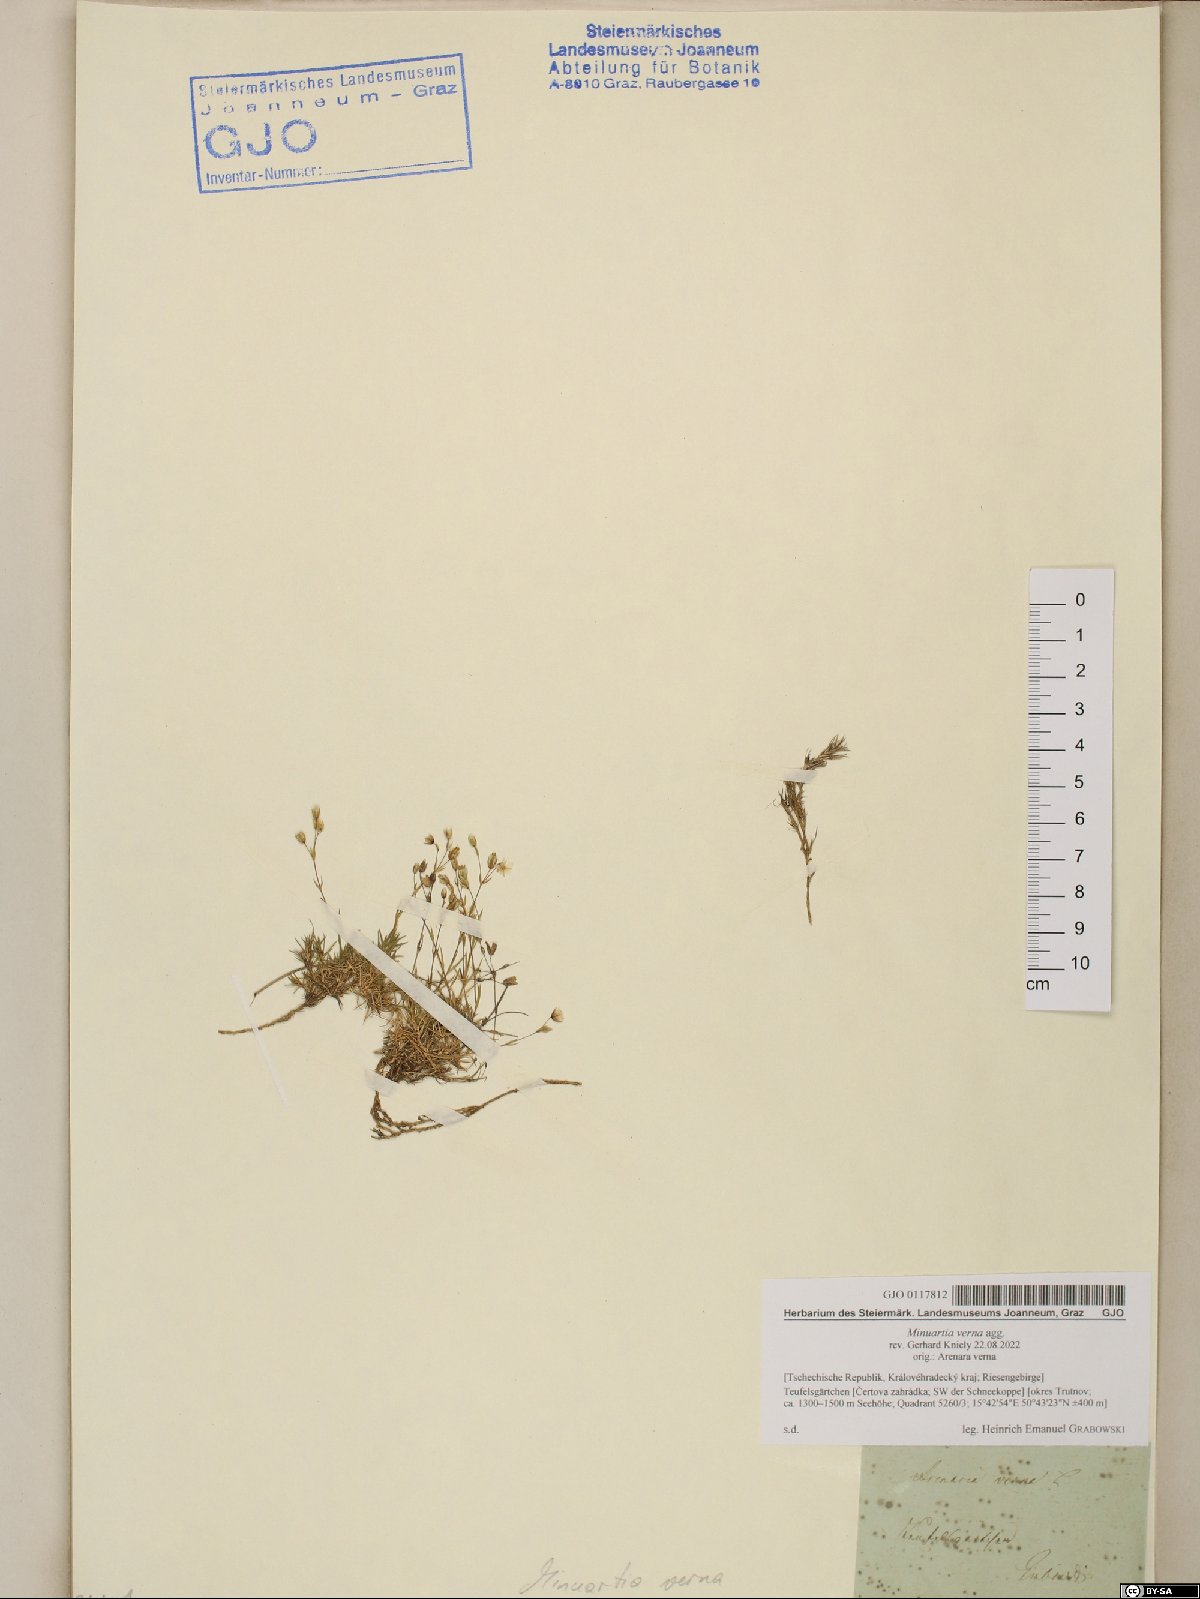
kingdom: Plantae
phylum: Tracheophyta
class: Magnoliopsida
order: Caryophyllales
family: Caryophyllaceae
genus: Sabulina
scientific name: Sabulina verna
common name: Spring sandwort
